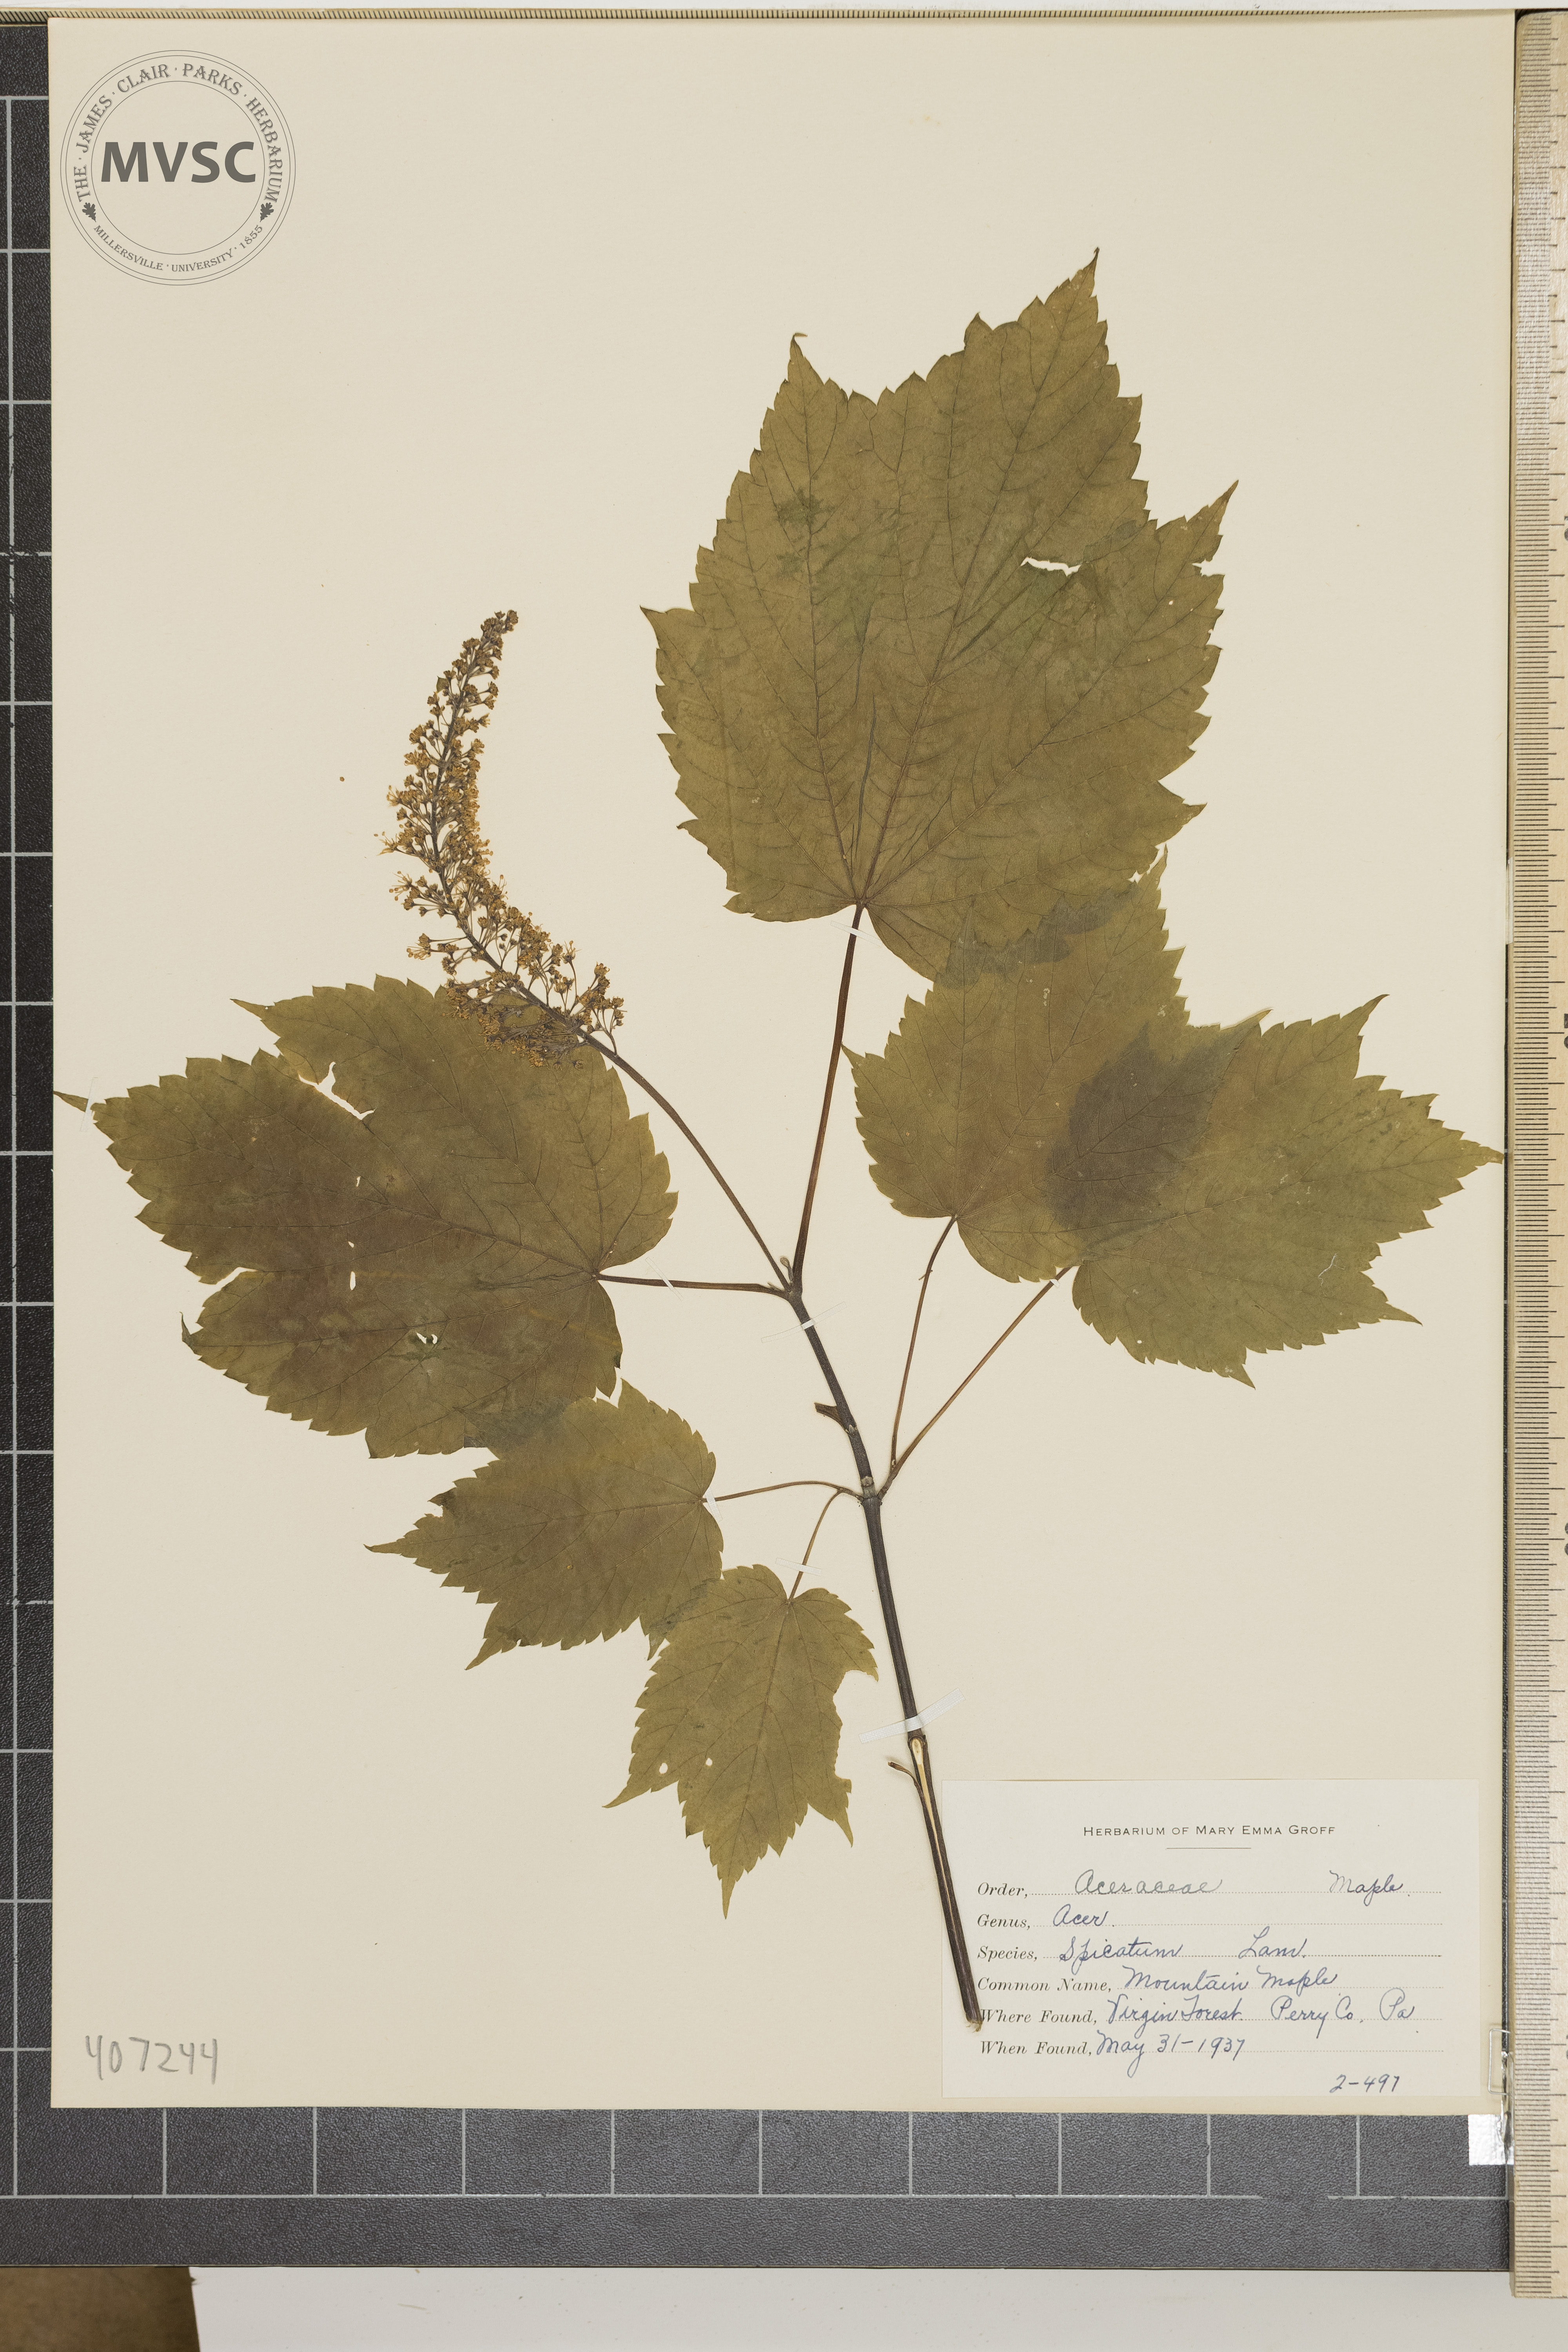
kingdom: Plantae
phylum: Tracheophyta
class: Magnoliopsida
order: Sapindales
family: Sapindaceae
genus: Acer
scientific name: Acer spicatum
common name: Mountain Maple
